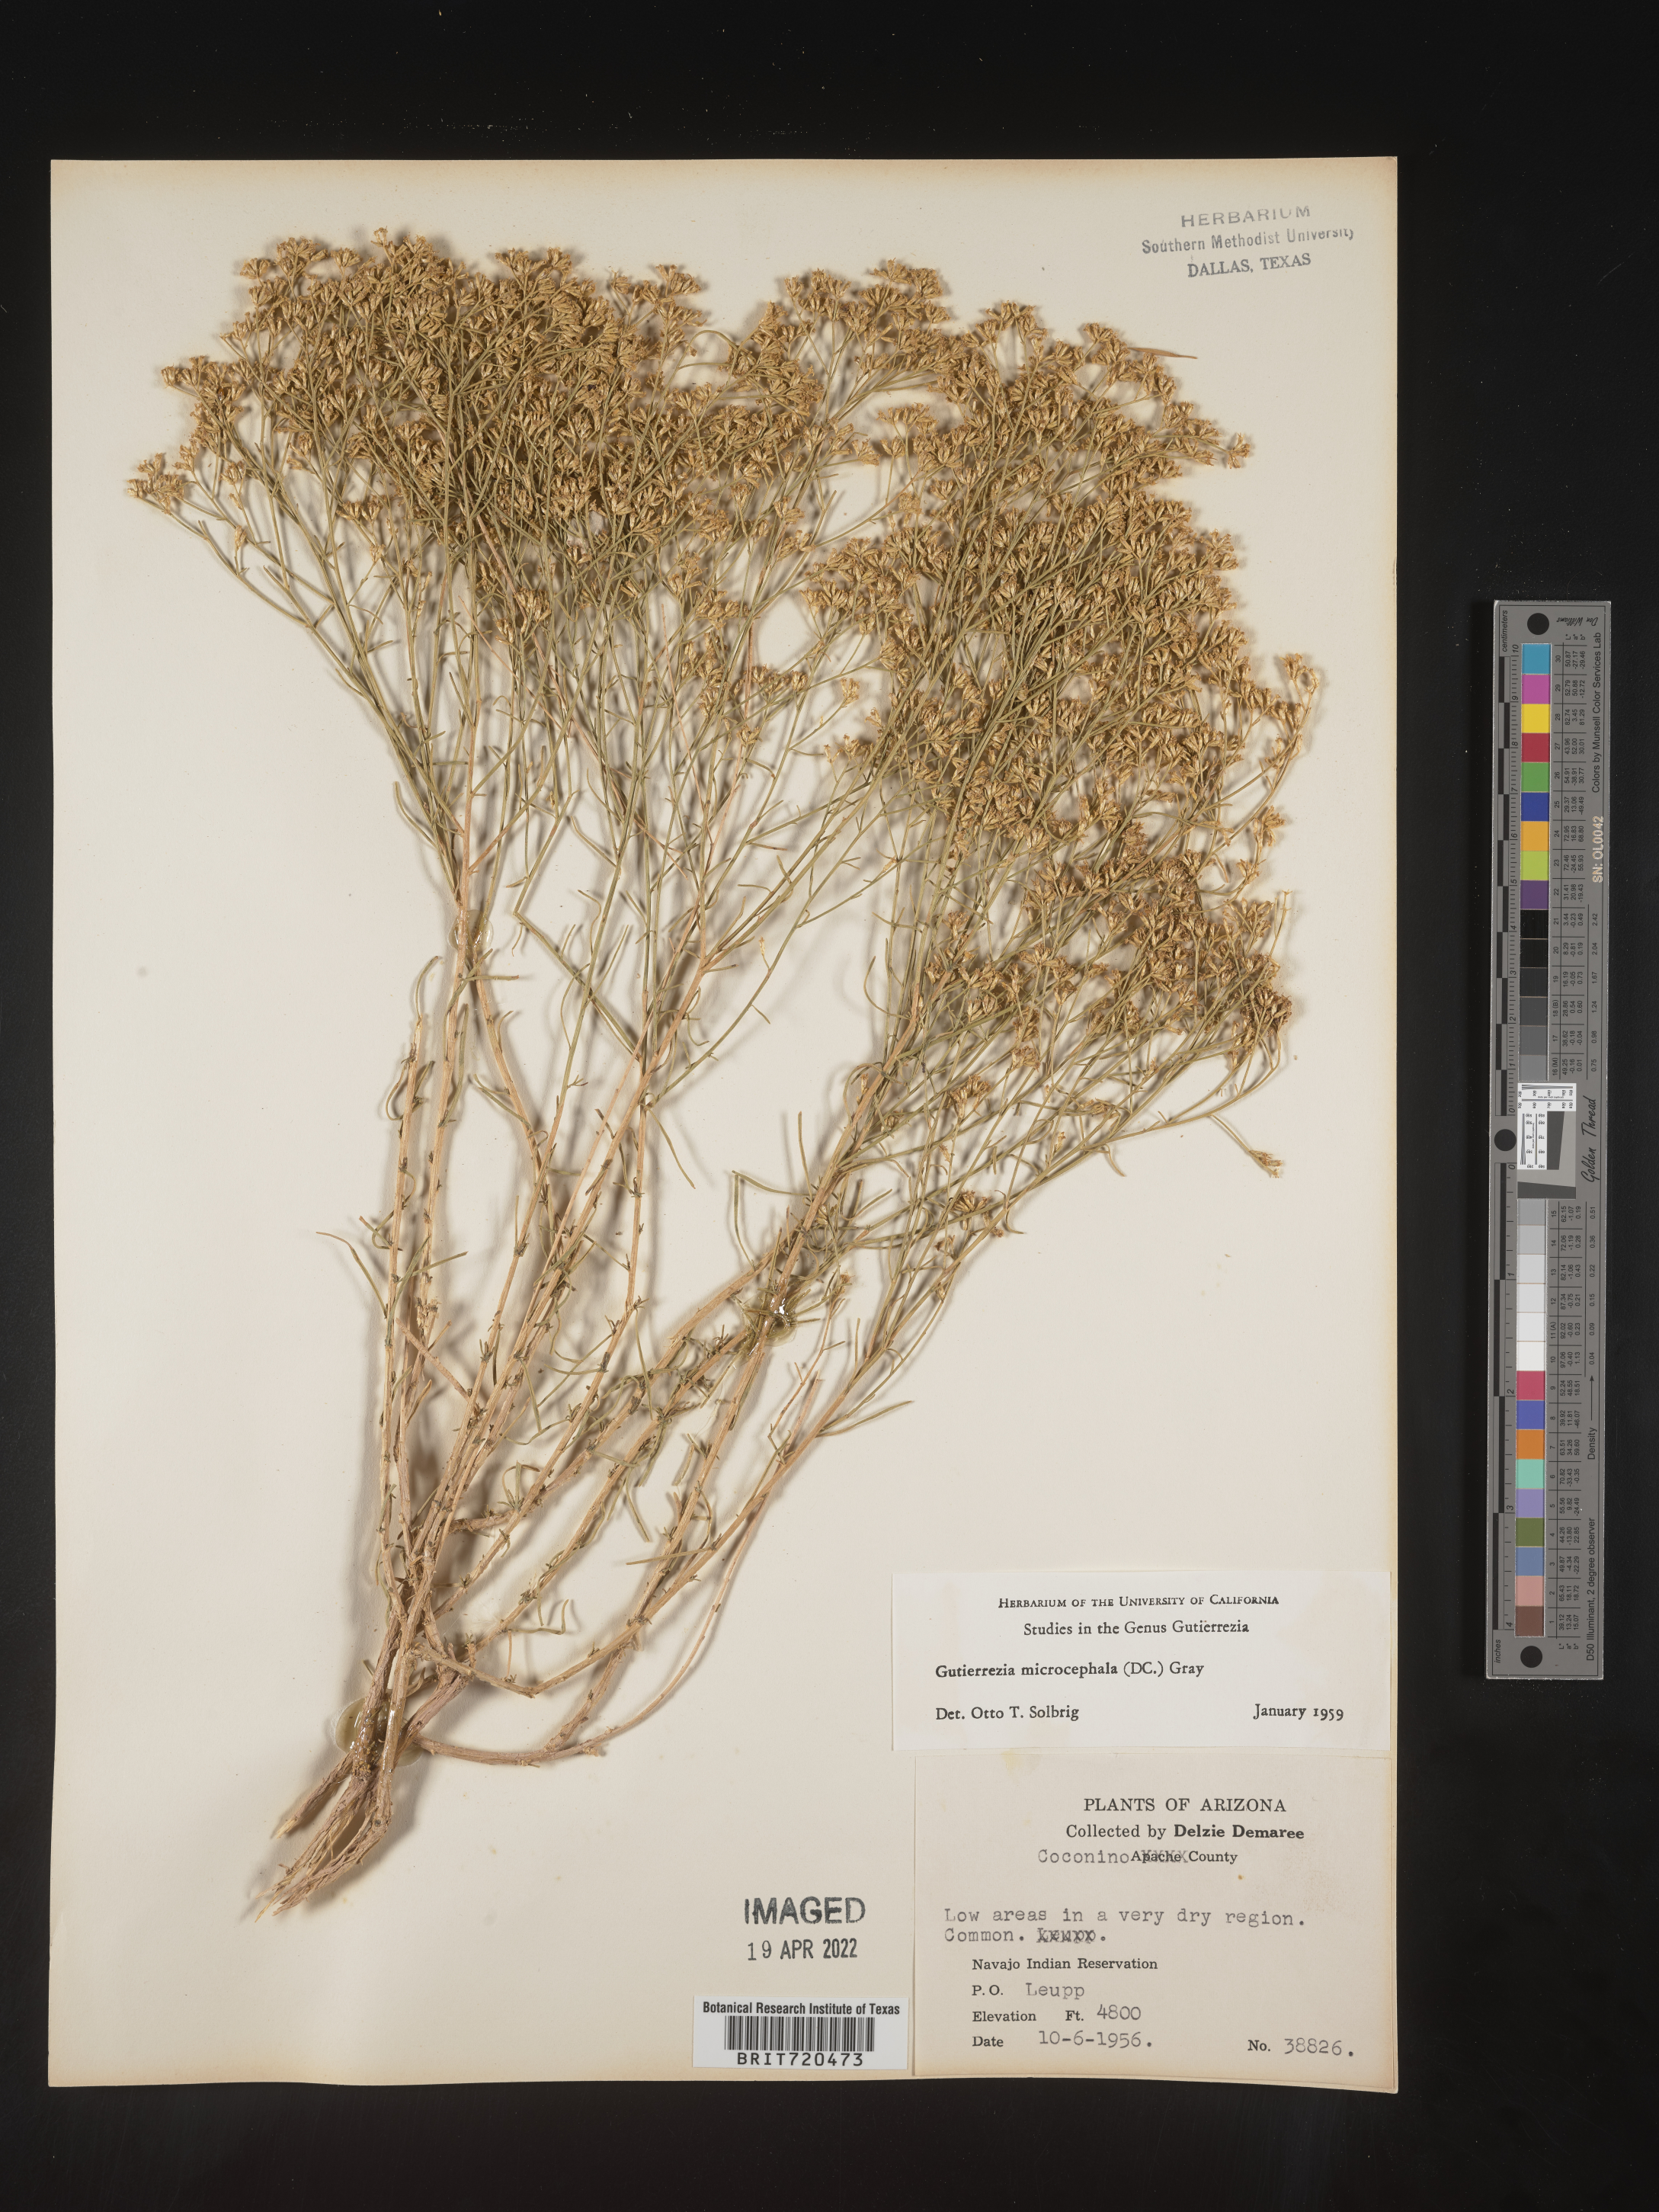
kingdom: Plantae
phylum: Tracheophyta
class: Magnoliopsida
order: Asterales
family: Asteraceae
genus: Gutierrezia
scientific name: Gutierrezia microcephala
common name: Thread snakeweed
